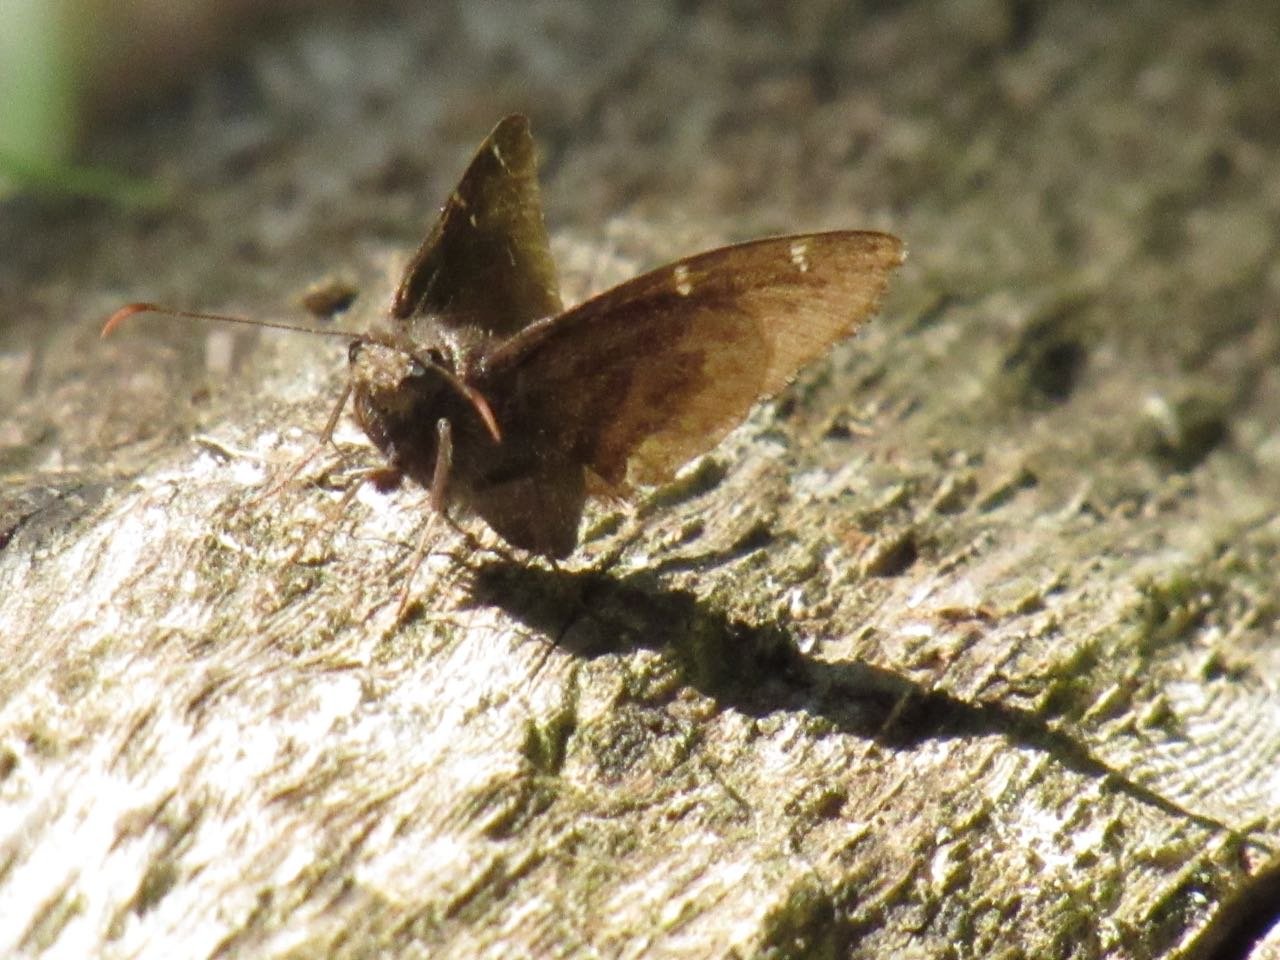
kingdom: Animalia
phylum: Arthropoda
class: Insecta
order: Lepidoptera
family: Hesperiidae
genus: Autochton
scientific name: Autochton
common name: Northern Cloudywing
